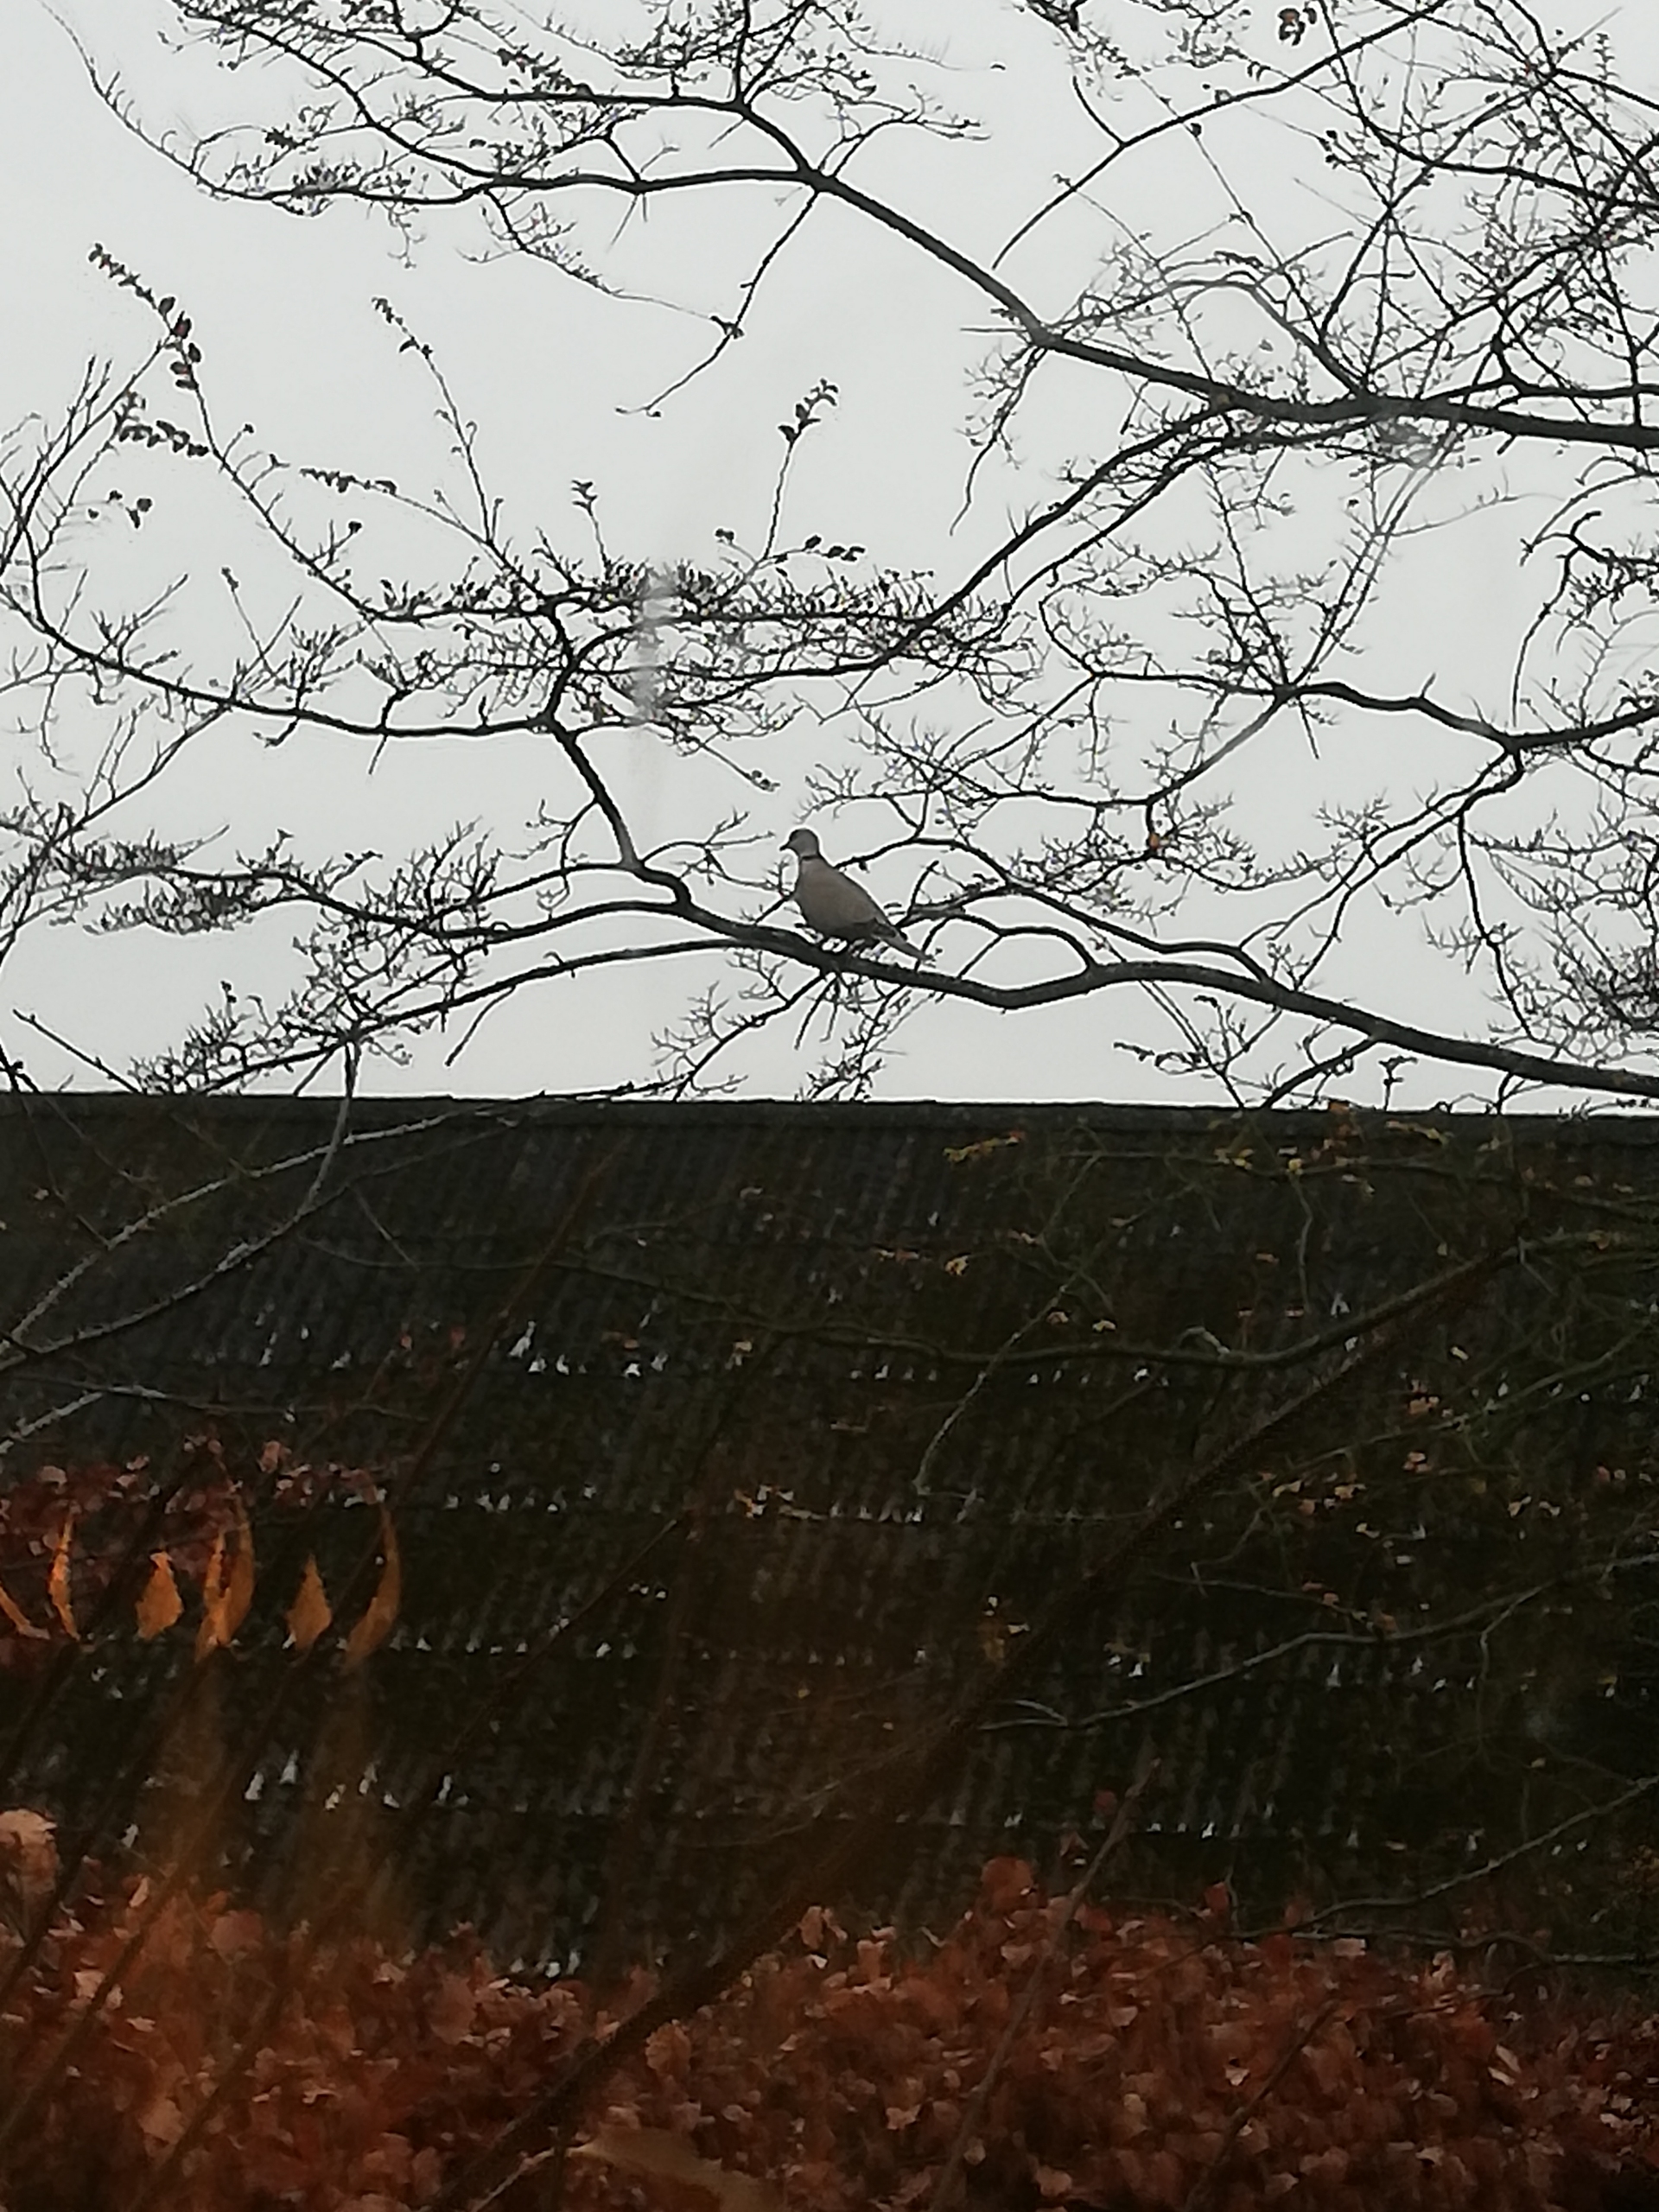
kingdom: Animalia
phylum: Chordata
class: Aves
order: Columbiformes
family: Columbidae
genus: Streptopelia
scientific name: Streptopelia decaocto
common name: Tyrkerdue
